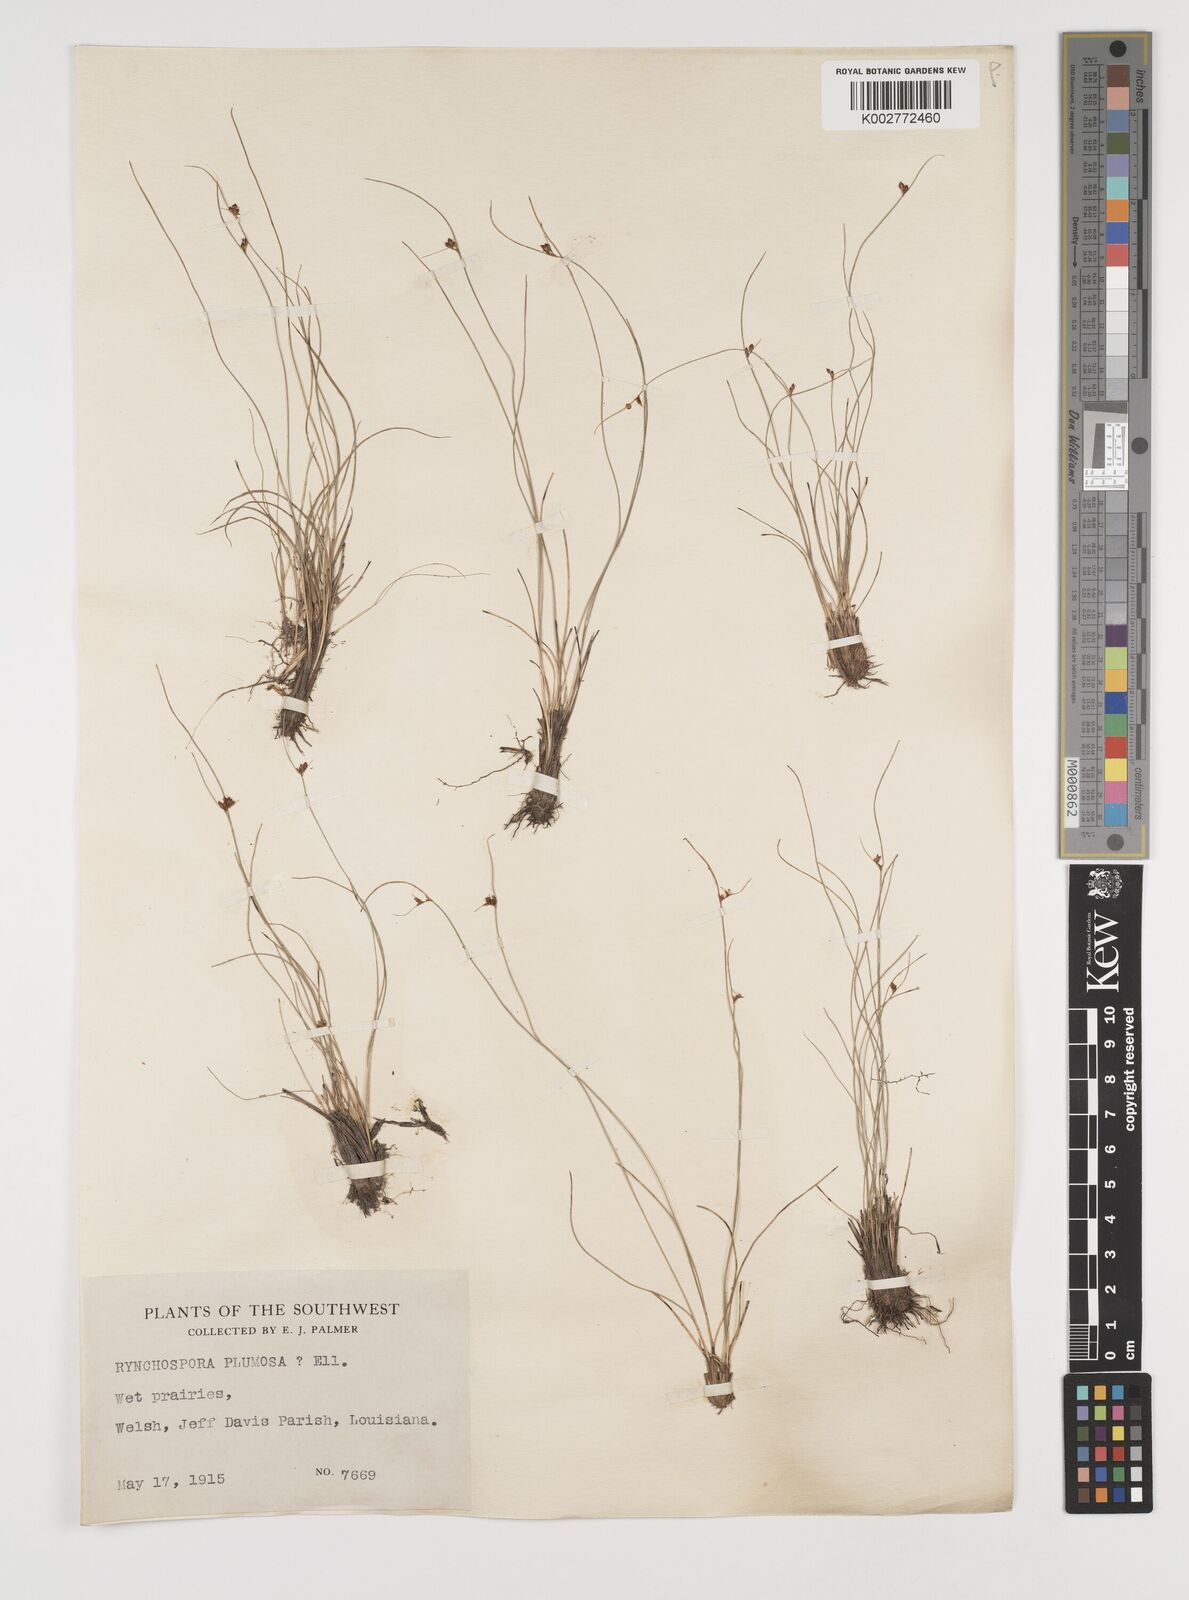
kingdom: Plantae
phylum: Tracheophyta
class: Liliopsida
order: Poales
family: Cyperaceae
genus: Rhynchospora
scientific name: Rhynchospora plumosa
